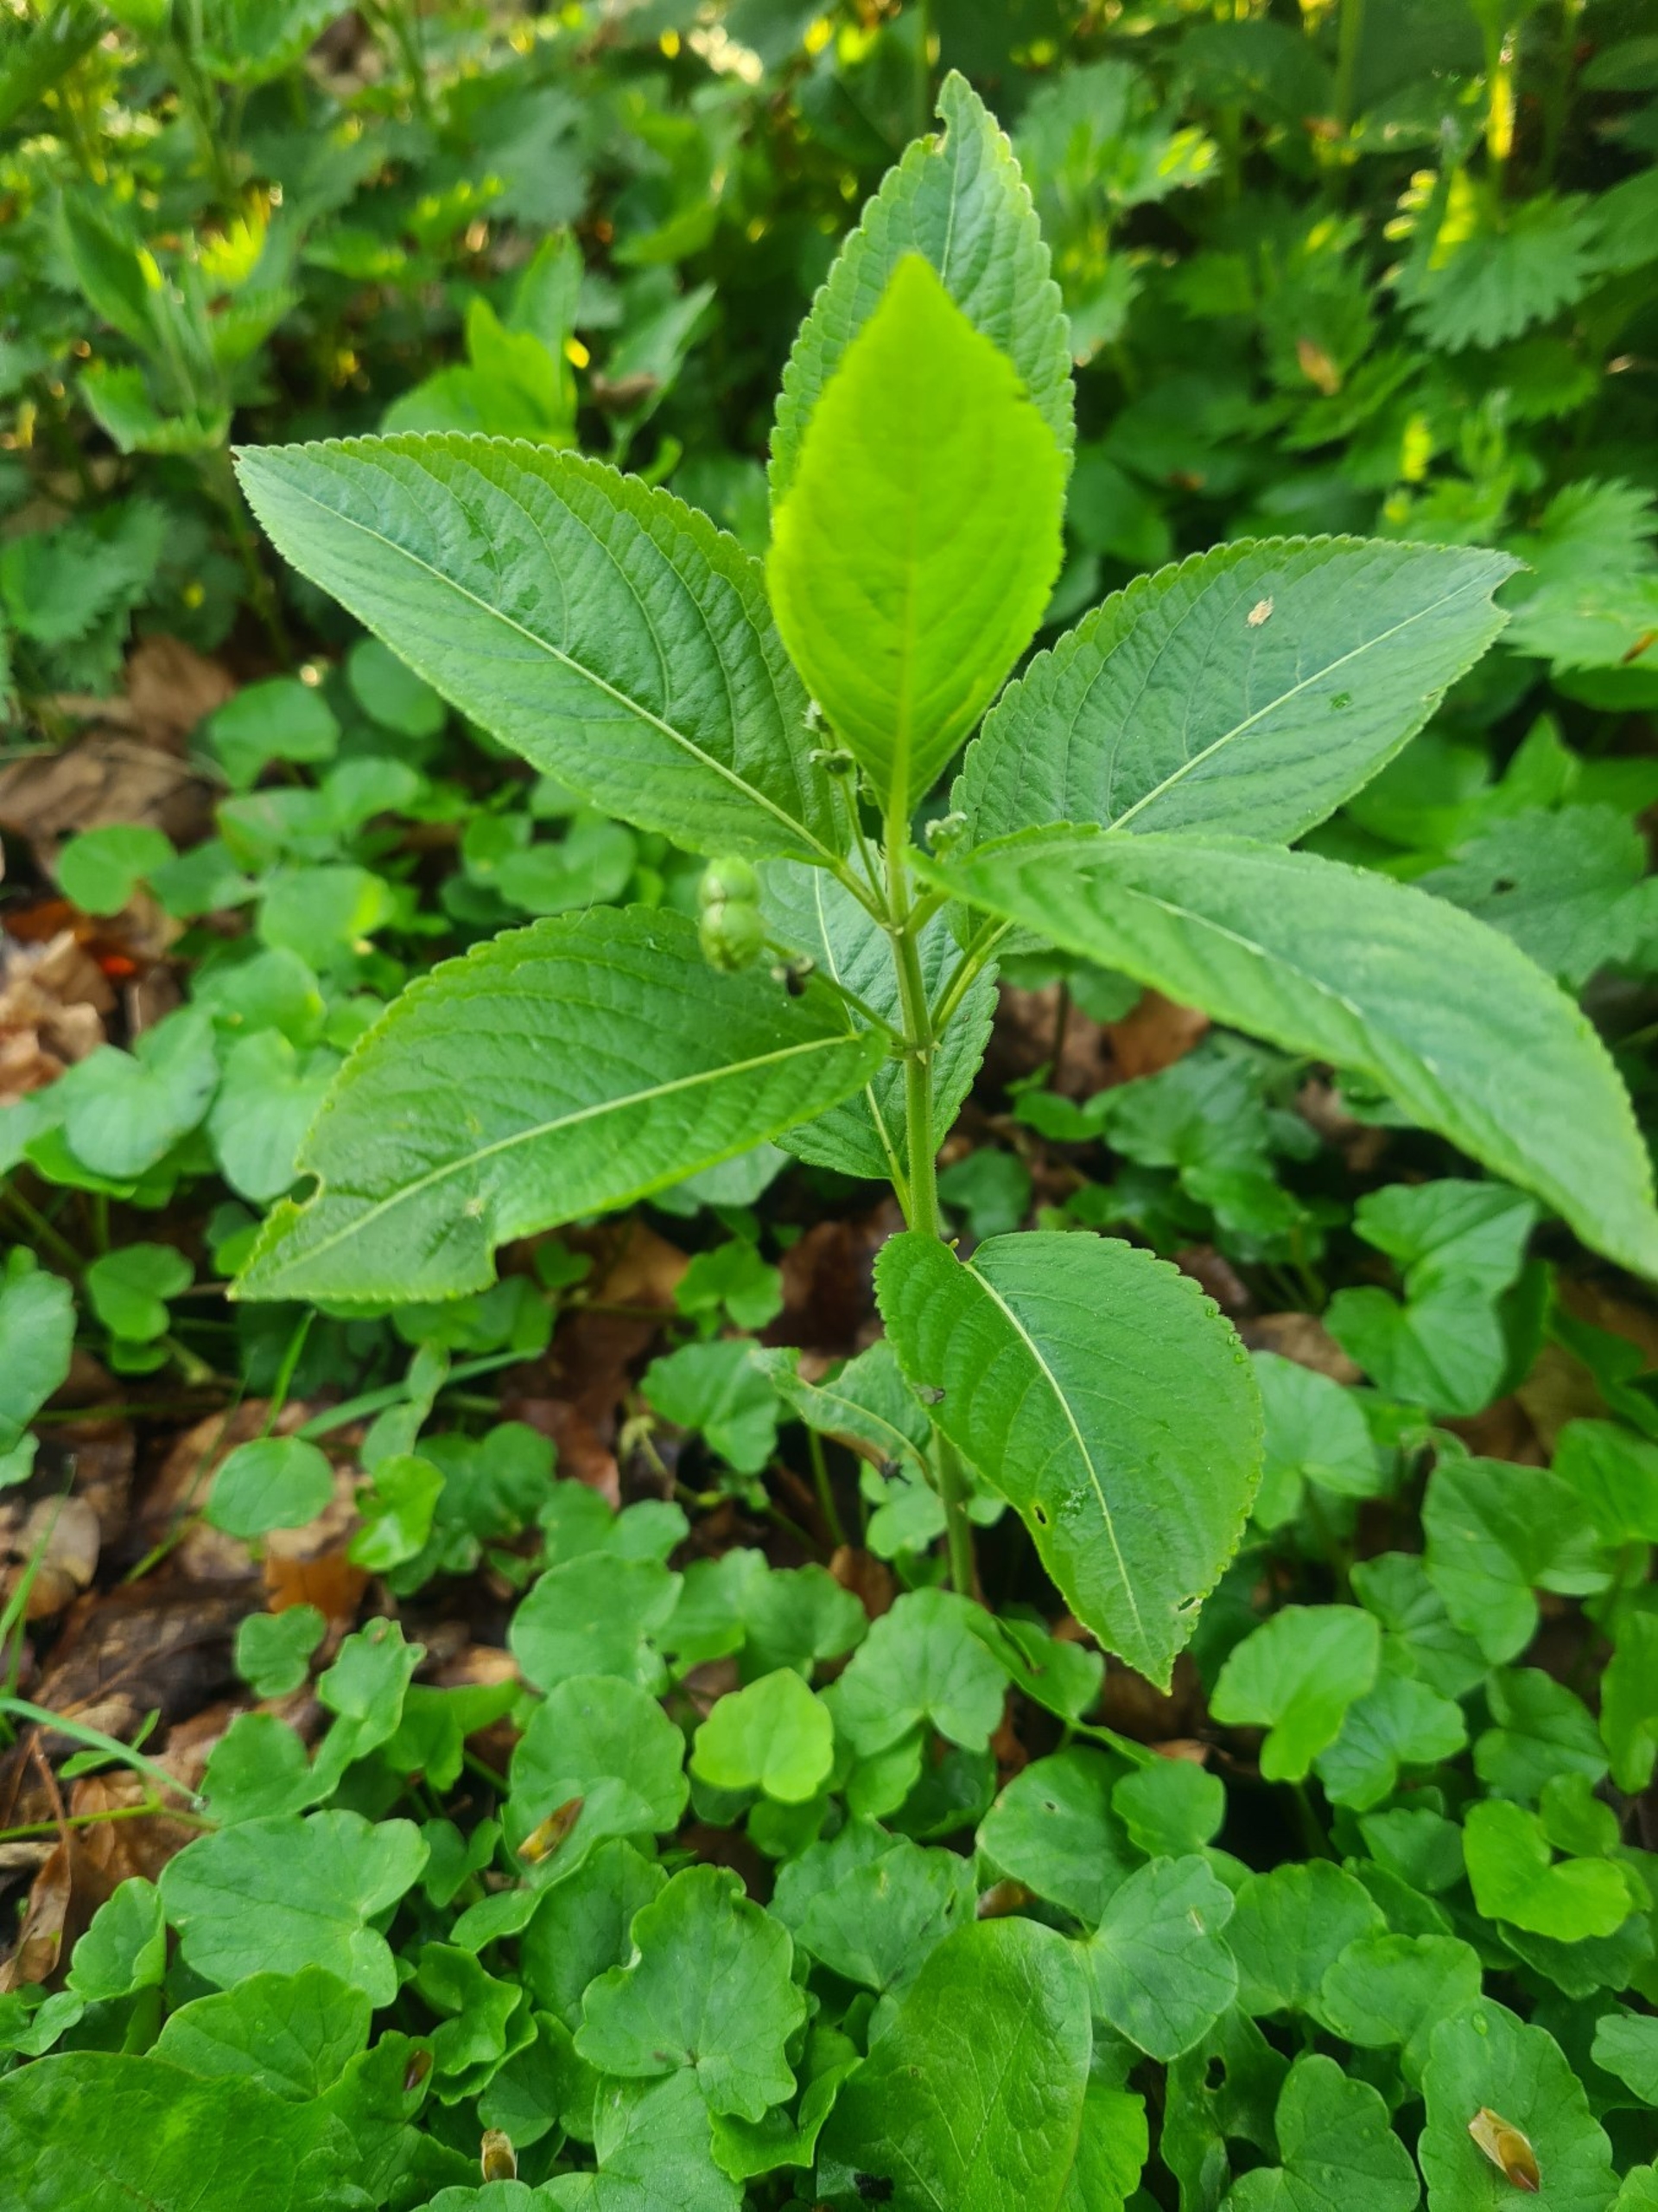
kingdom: Plantae
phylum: Tracheophyta
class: Magnoliopsida
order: Malpighiales
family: Euphorbiaceae
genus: Mercurialis
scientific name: Mercurialis perennis
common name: Almindelig bingelurt
